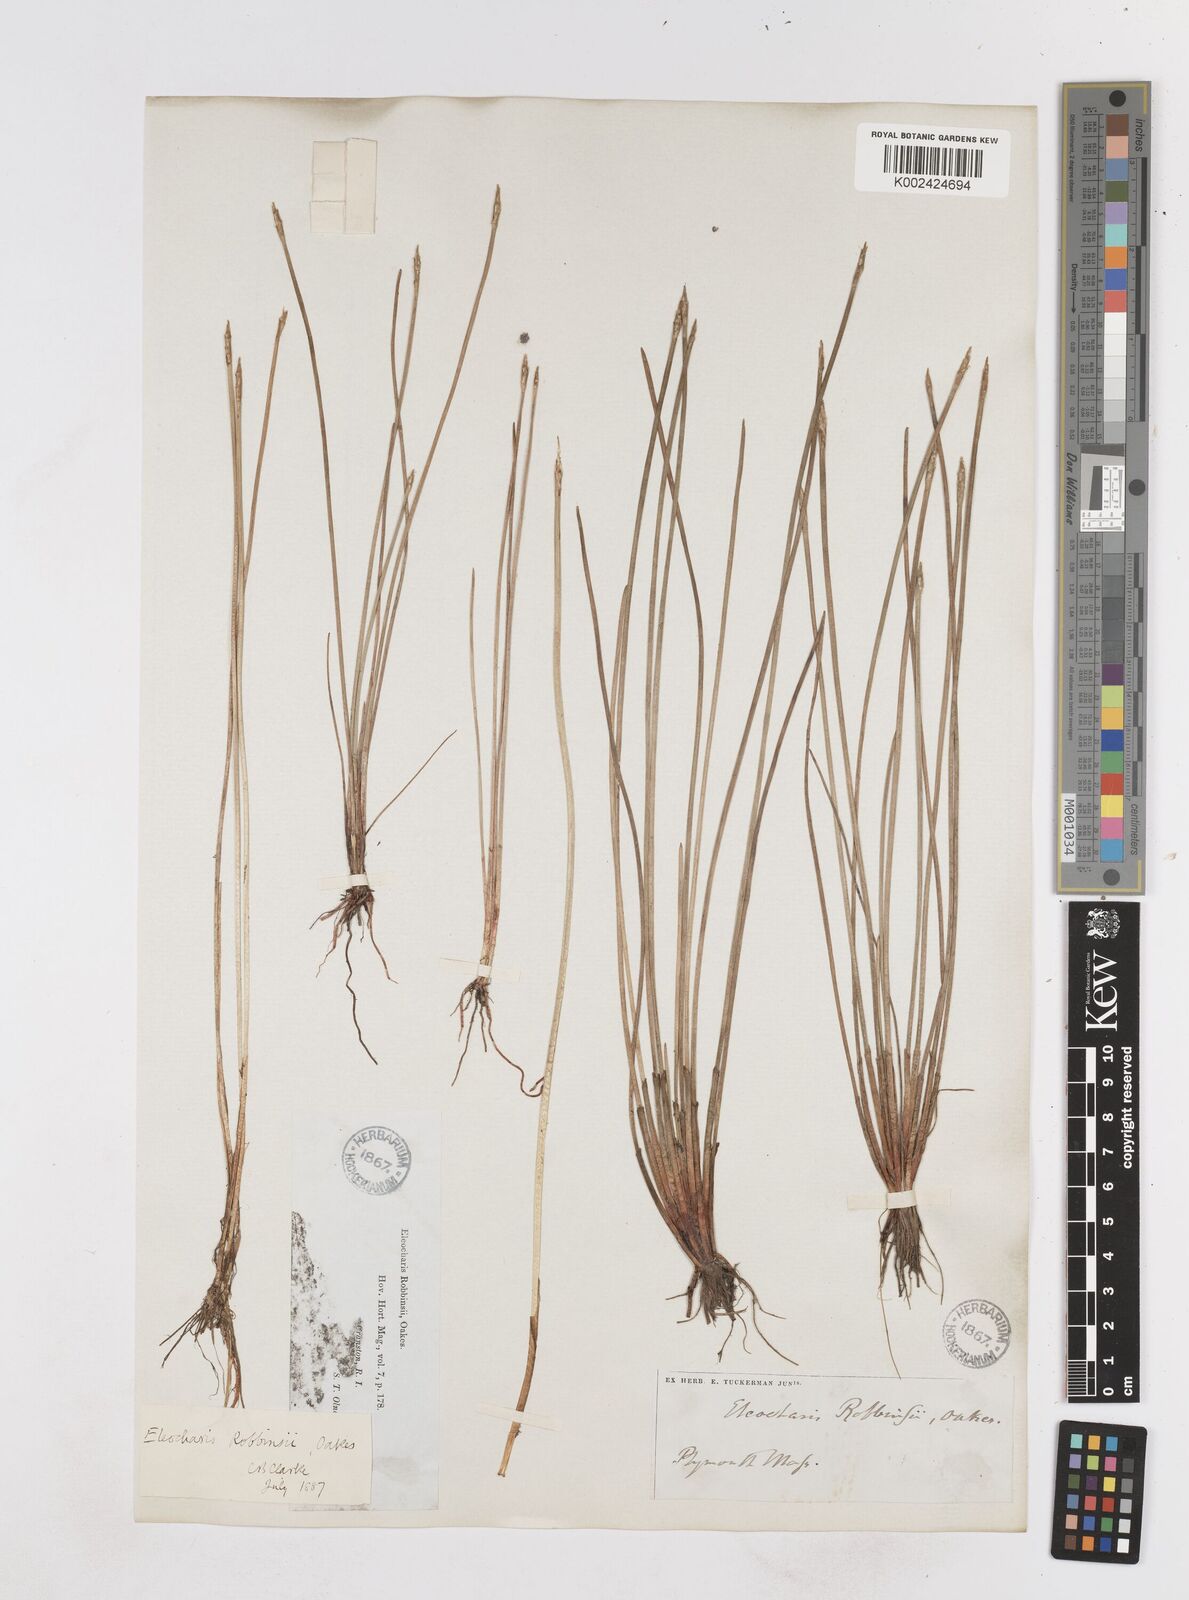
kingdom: Plantae
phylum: Tracheophyta
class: Liliopsida
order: Poales
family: Cyperaceae
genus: Eleocharis
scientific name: Eleocharis robbinsii
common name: Robbins' spikerush
